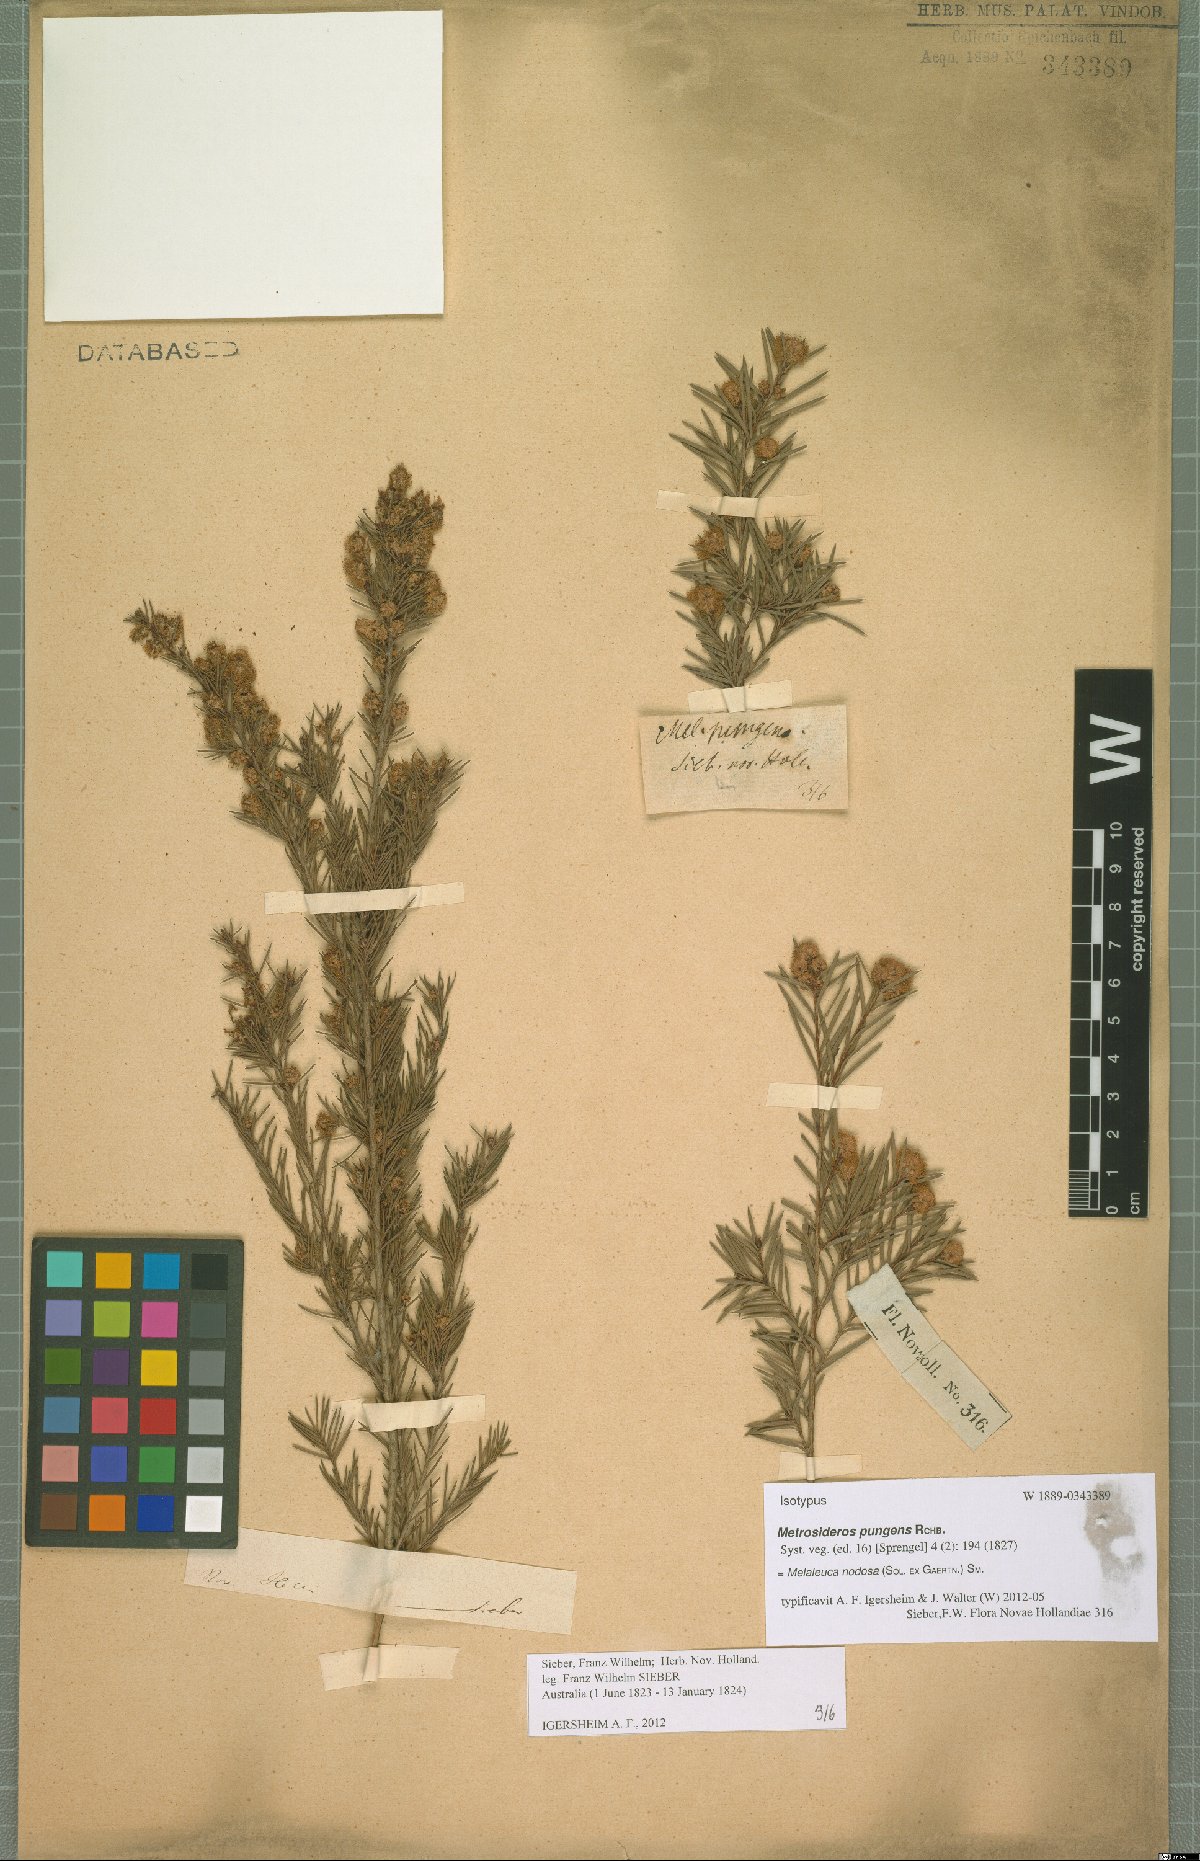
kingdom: Plantae
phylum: Tracheophyta
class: Magnoliopsida
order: Myrtales
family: Myrtaceae
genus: Melaleuca
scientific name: Melaleuca nodosa
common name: Prickly-leaf paperbark
